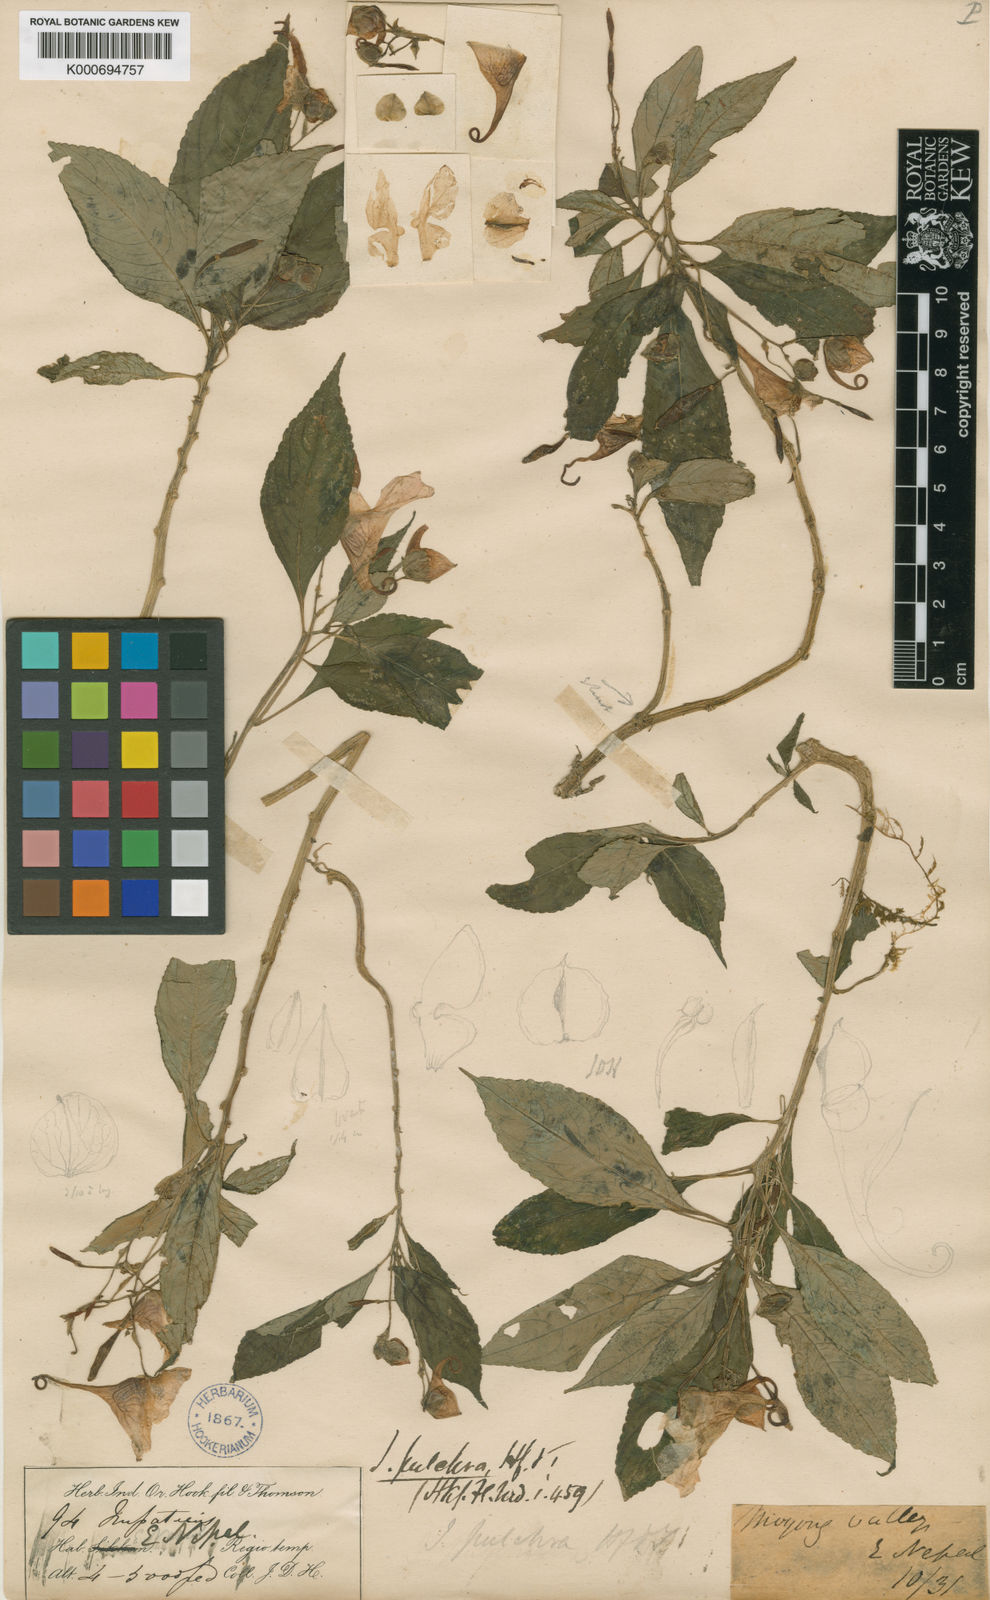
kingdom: Plantae
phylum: Tracheophyta
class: Magnoliopsida
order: Ericales
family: Balsaminaceae
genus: Impatiens
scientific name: Impatiens pulchra
